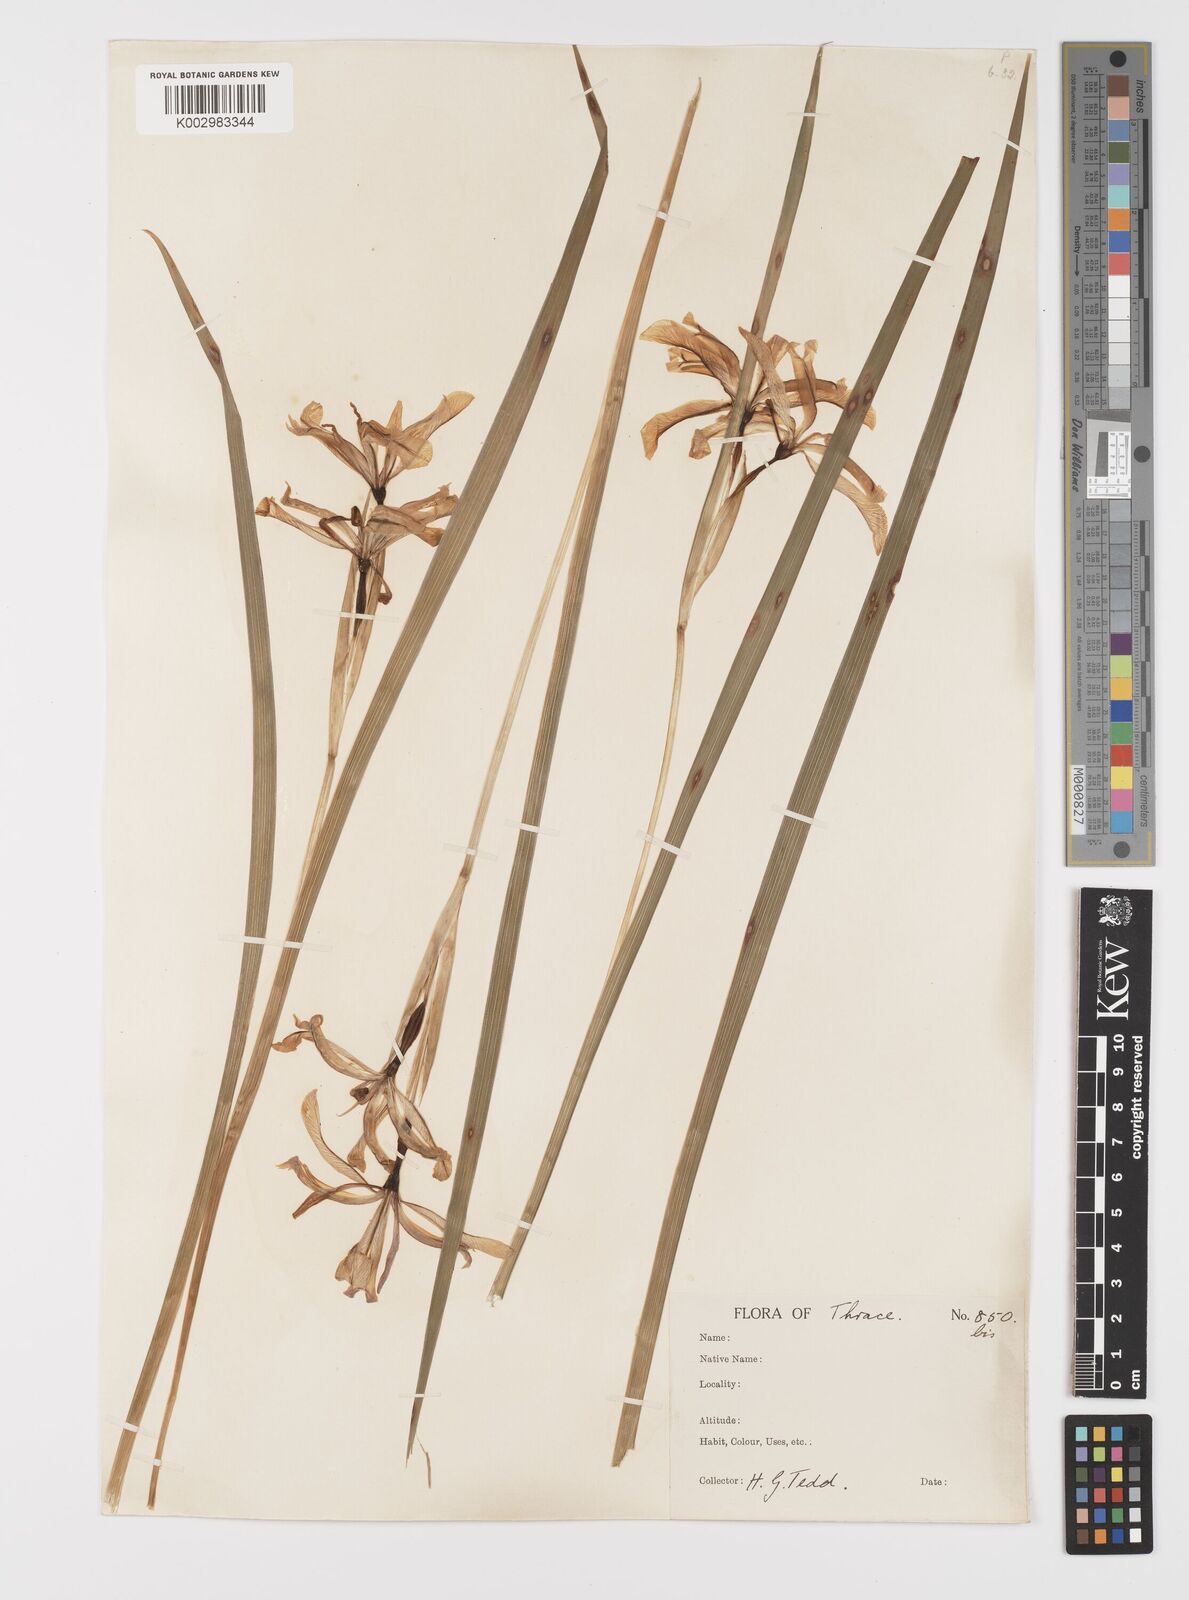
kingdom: Plantae
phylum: Tracheophyta
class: Liliopsida
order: Asparagales
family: Iridaceae
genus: Iris
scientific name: Iris graminea
